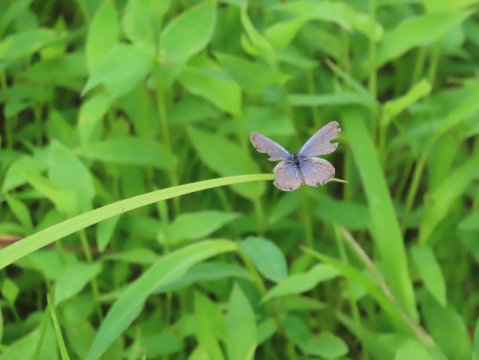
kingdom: Animalia
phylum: Arthropoda
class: Insecta
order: Lepidoptera
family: Lycaenidae
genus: Elkalyce
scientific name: Elkalyce comyntas
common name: Eastern Tailed-Blue
